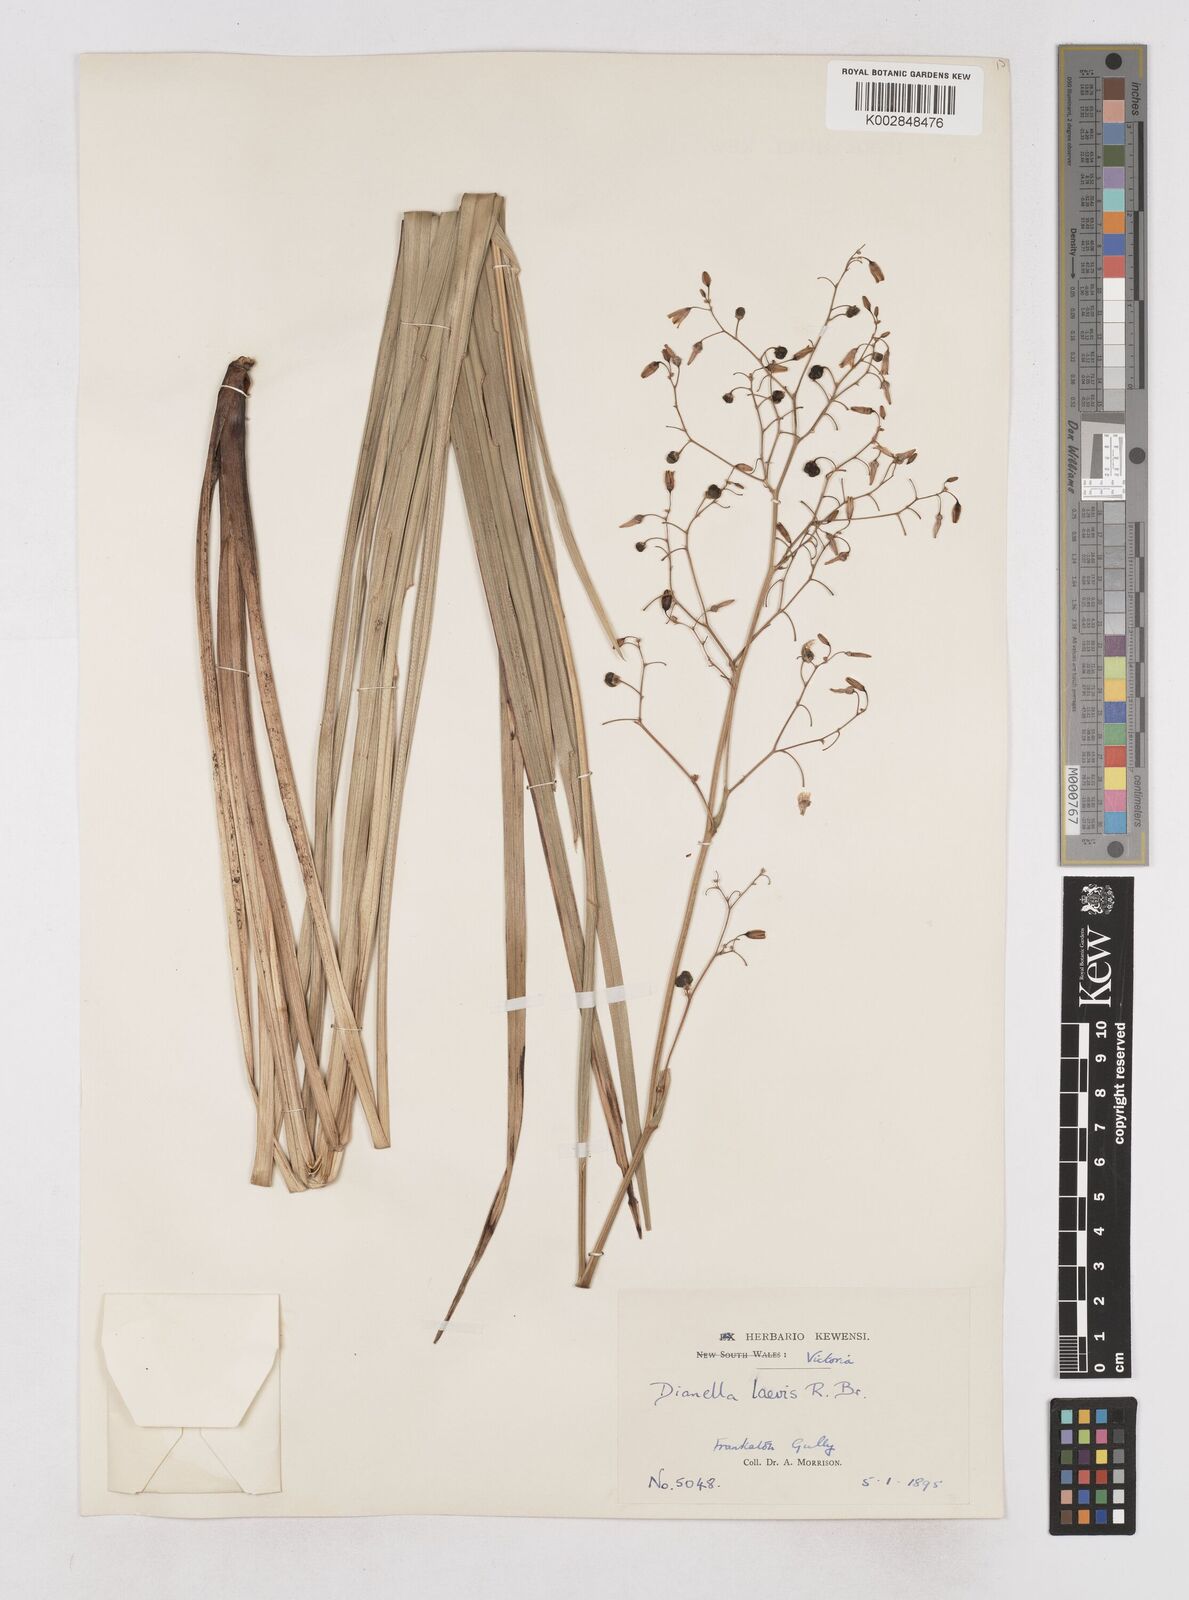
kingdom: Plantae
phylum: Tracheophyta
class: Liliopsida
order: Asparagales
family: Asphodelaceae
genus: Dianella
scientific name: Dianella longifolia
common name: Blue flax-lily
